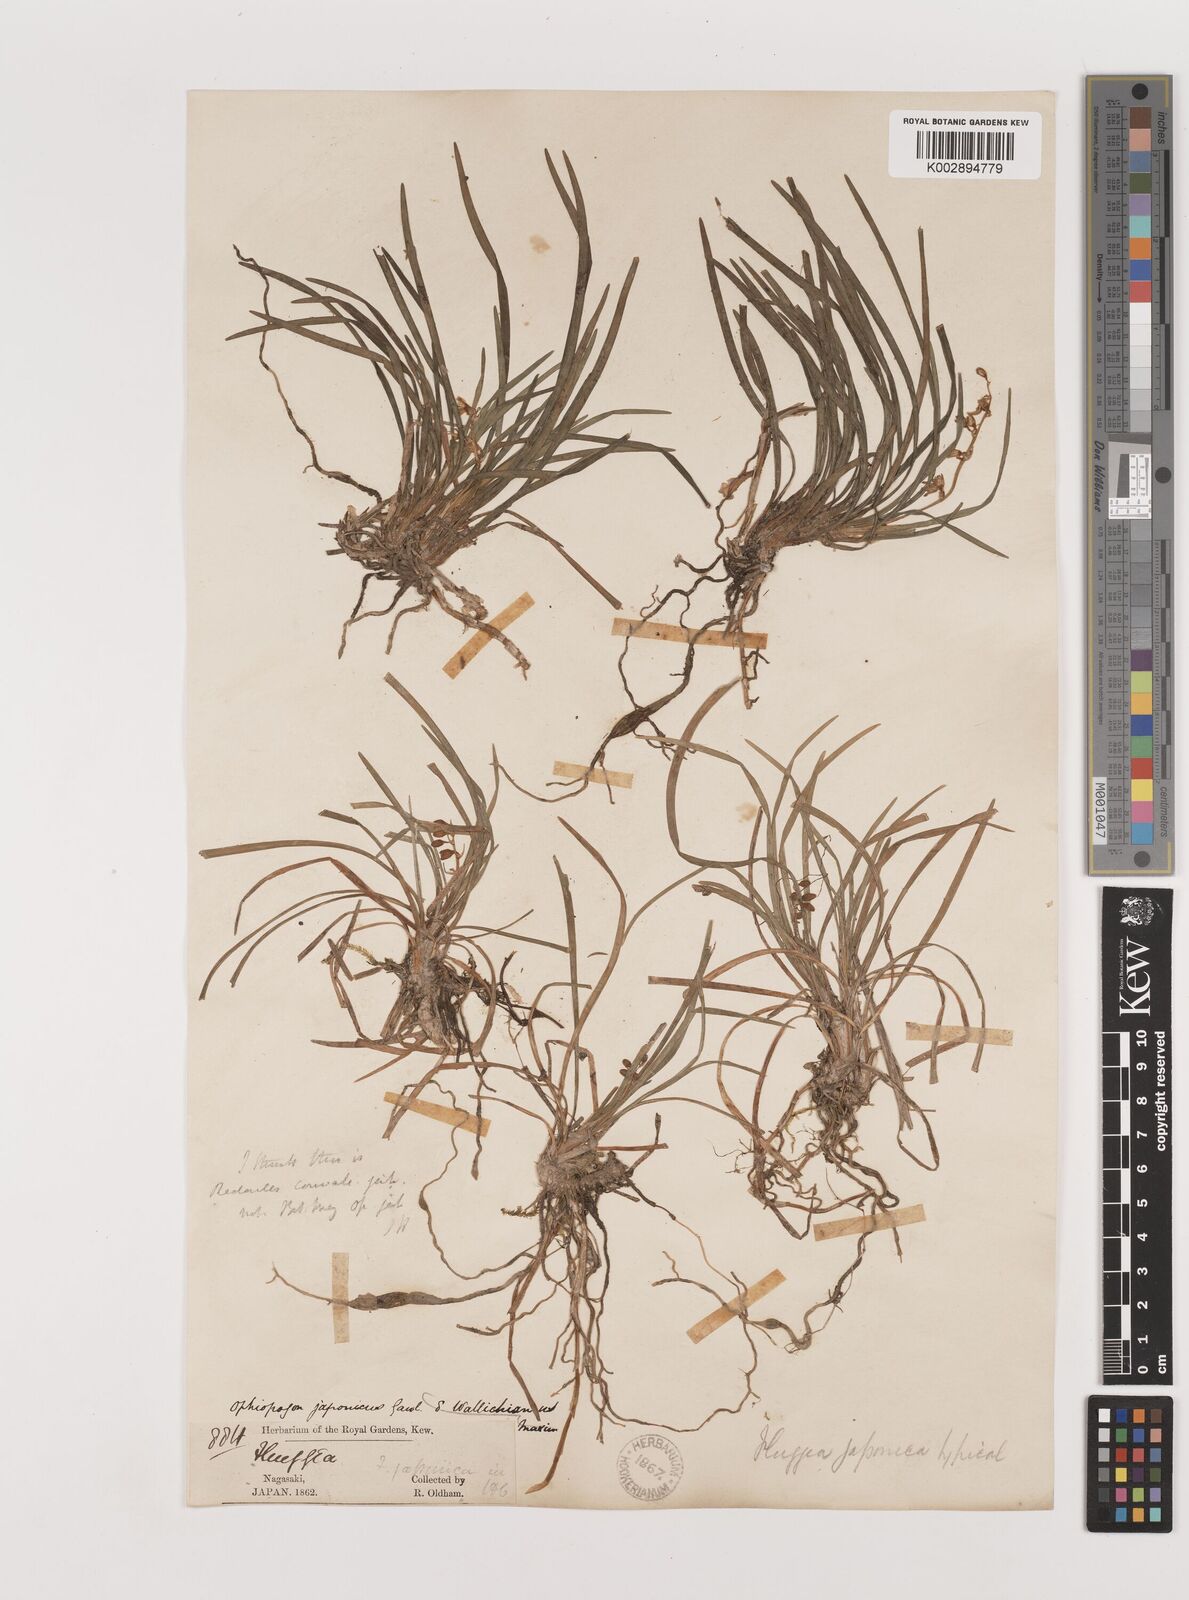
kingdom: Plantae
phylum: Tracheophyta
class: Liliopsida
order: Asparagales
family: Asparagaceae
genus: Ophiopogon
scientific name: Ophiopogon japonicus
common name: Dwarf lilyturf
